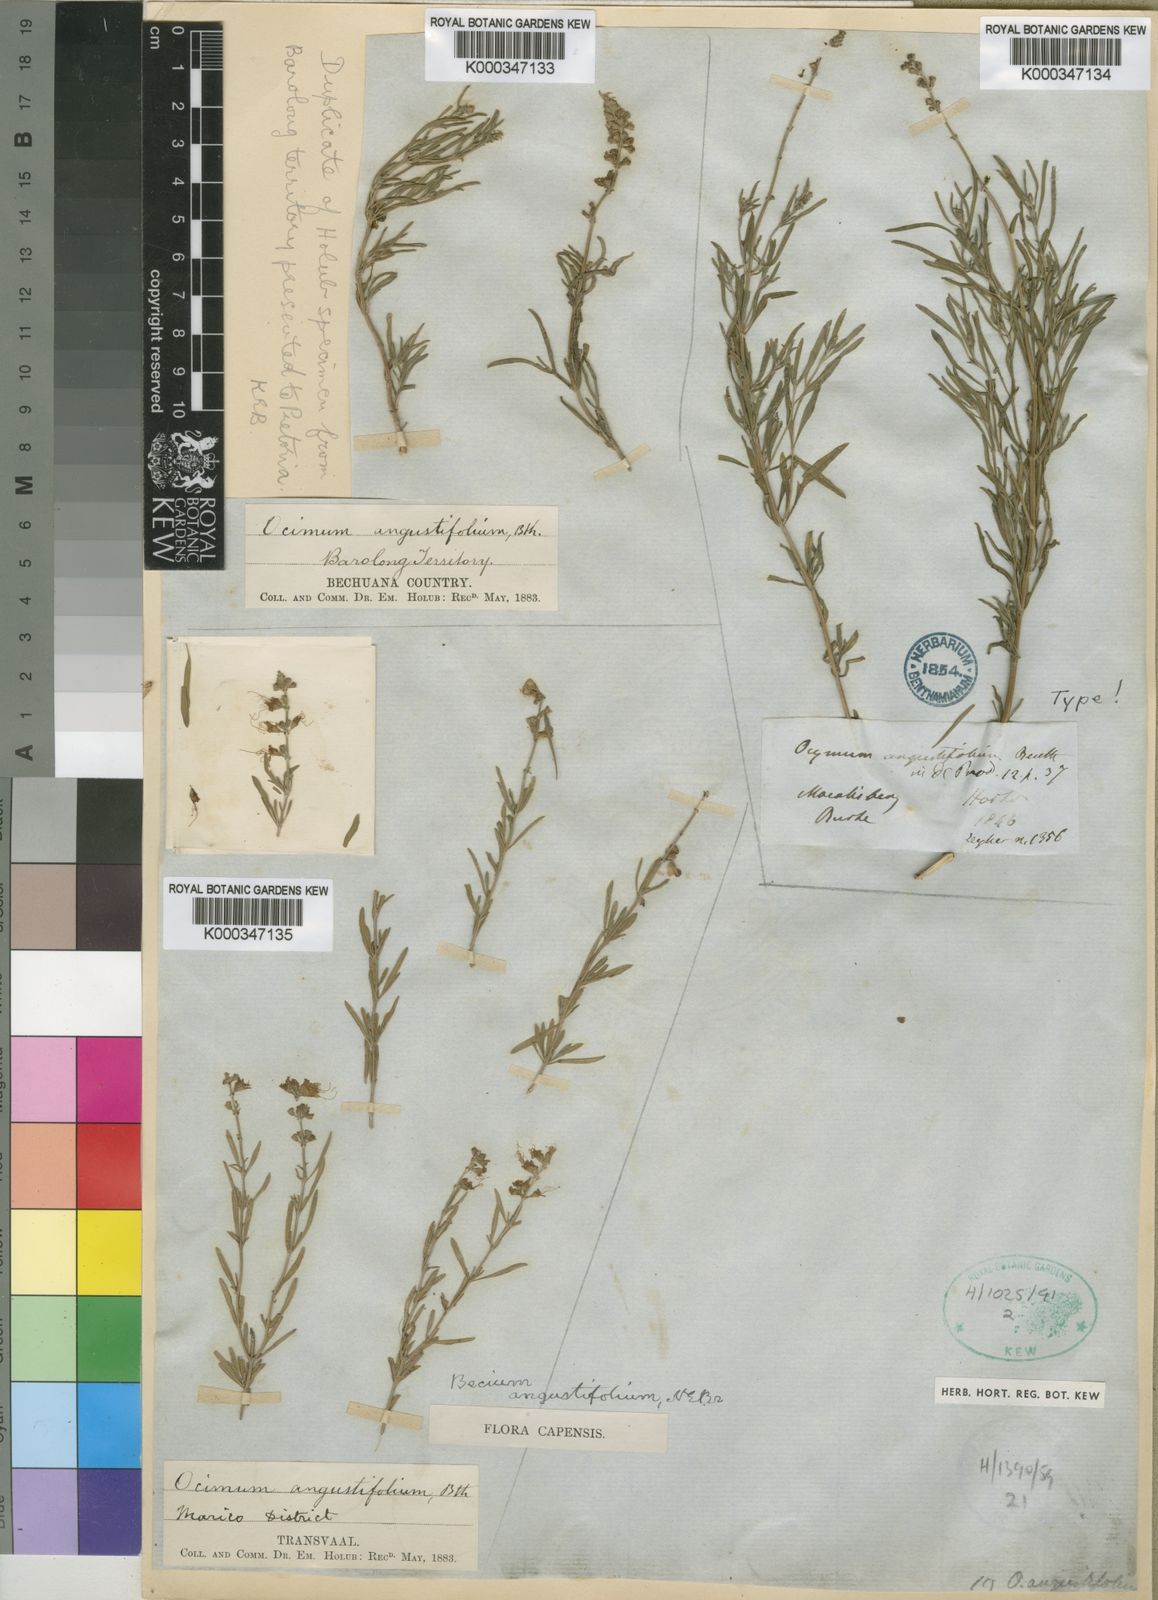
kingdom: Plantae
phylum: Tracheophyta
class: Magnoliopsida
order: Lamiales
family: Lamiaceae
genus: Ocimum
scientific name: Ocimum angustifolium
